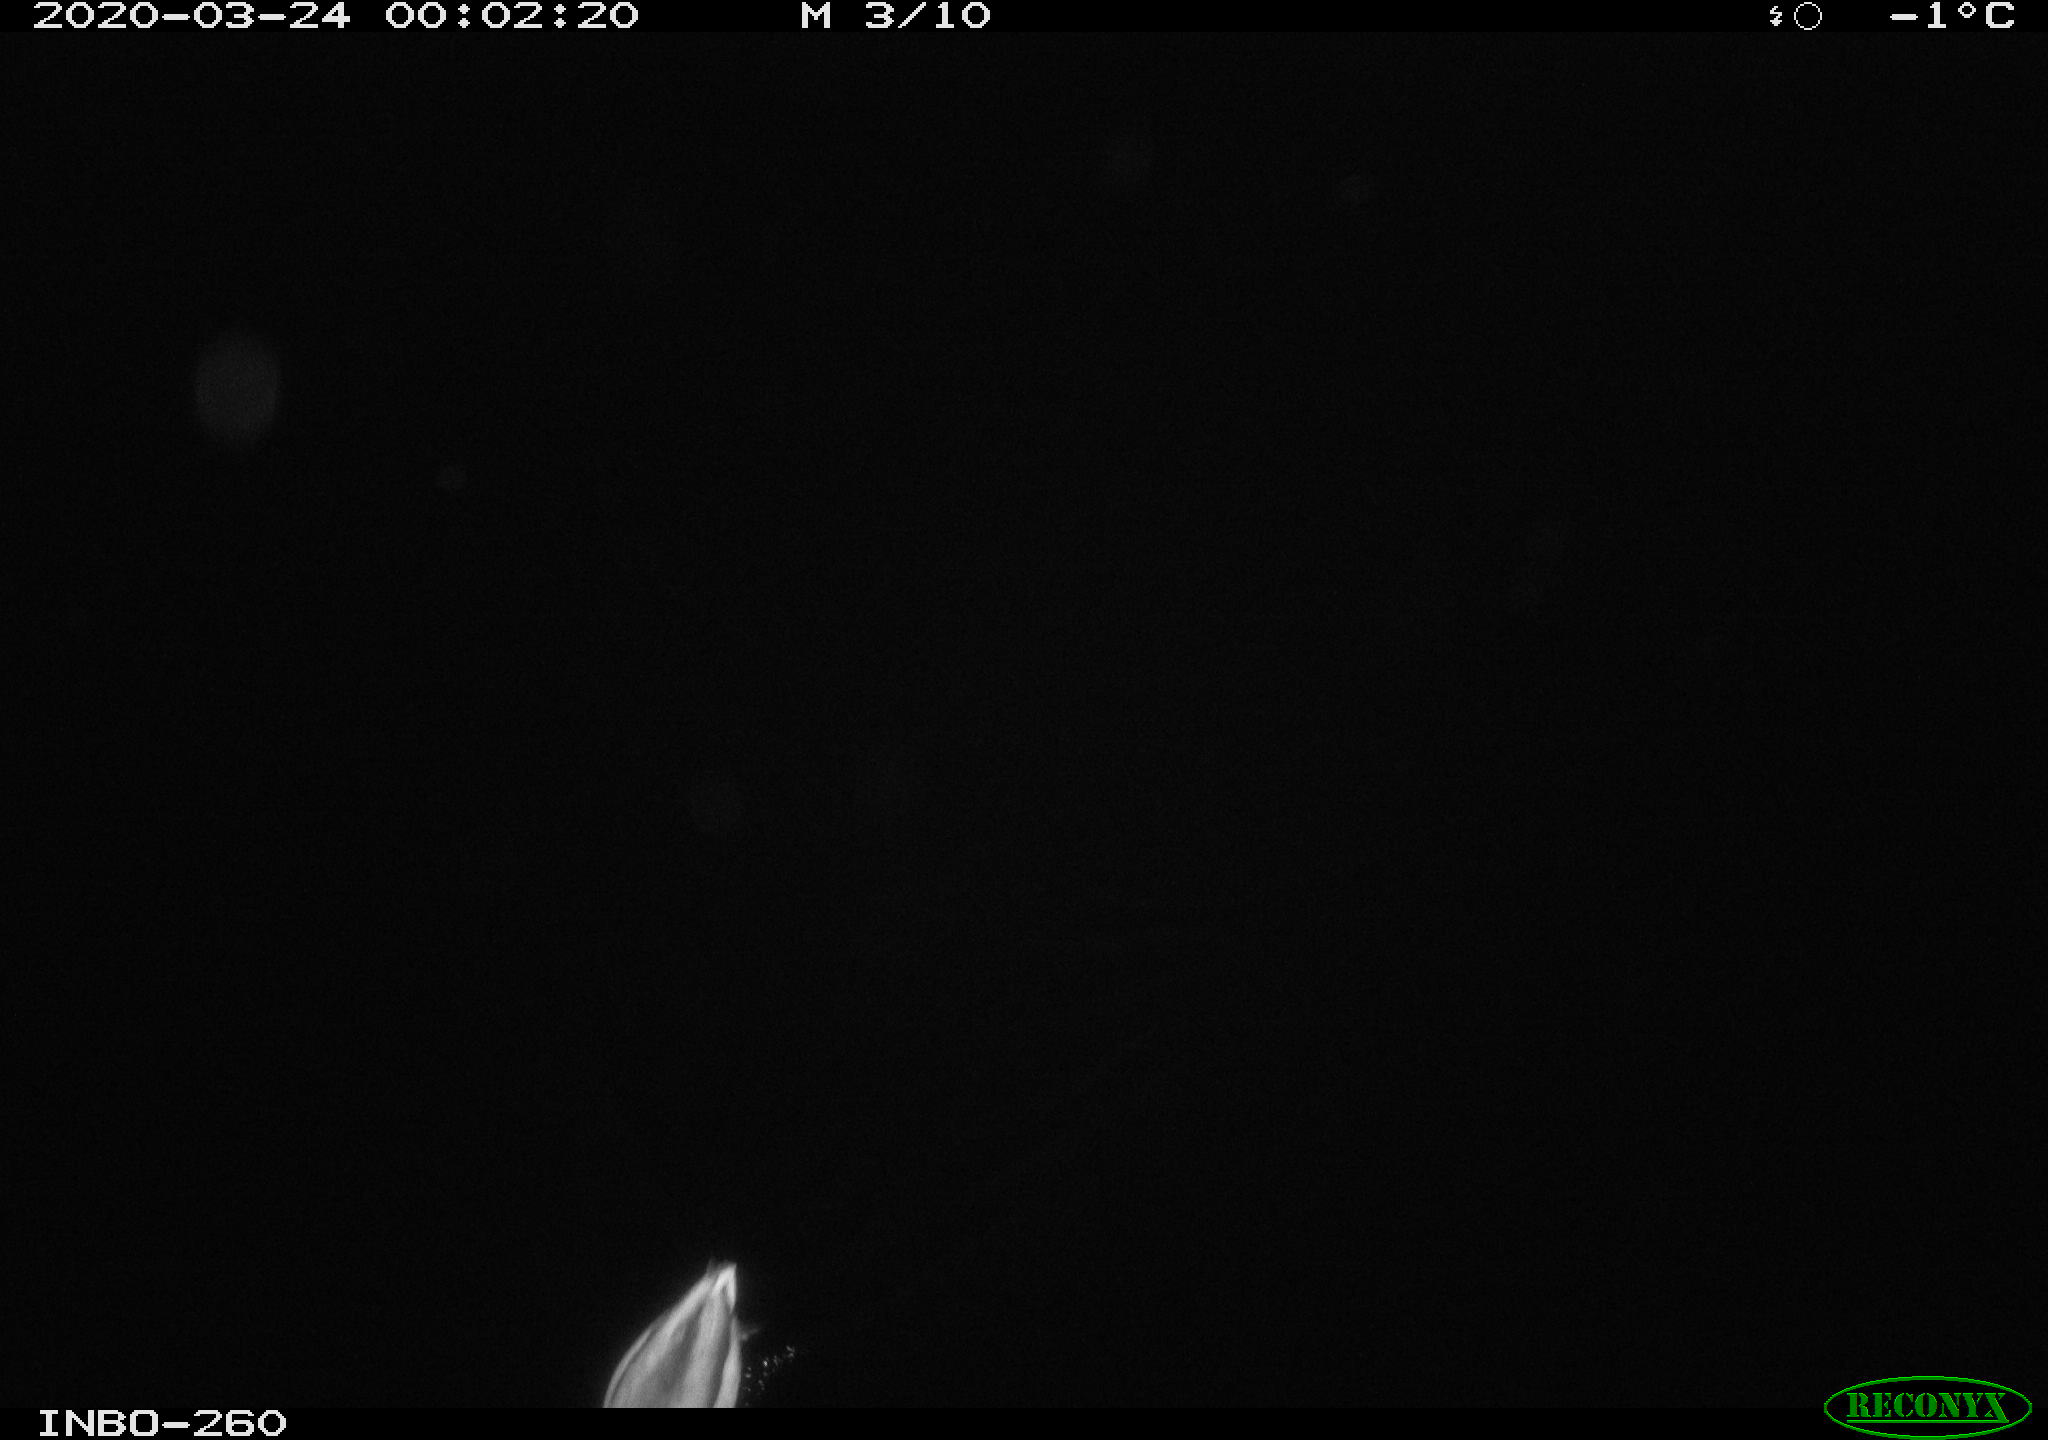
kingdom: Animalia
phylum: Chordata
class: Aves
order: Anseriformes
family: Anatidae
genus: Anas
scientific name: Anas platyrhynchos
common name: Mallard
